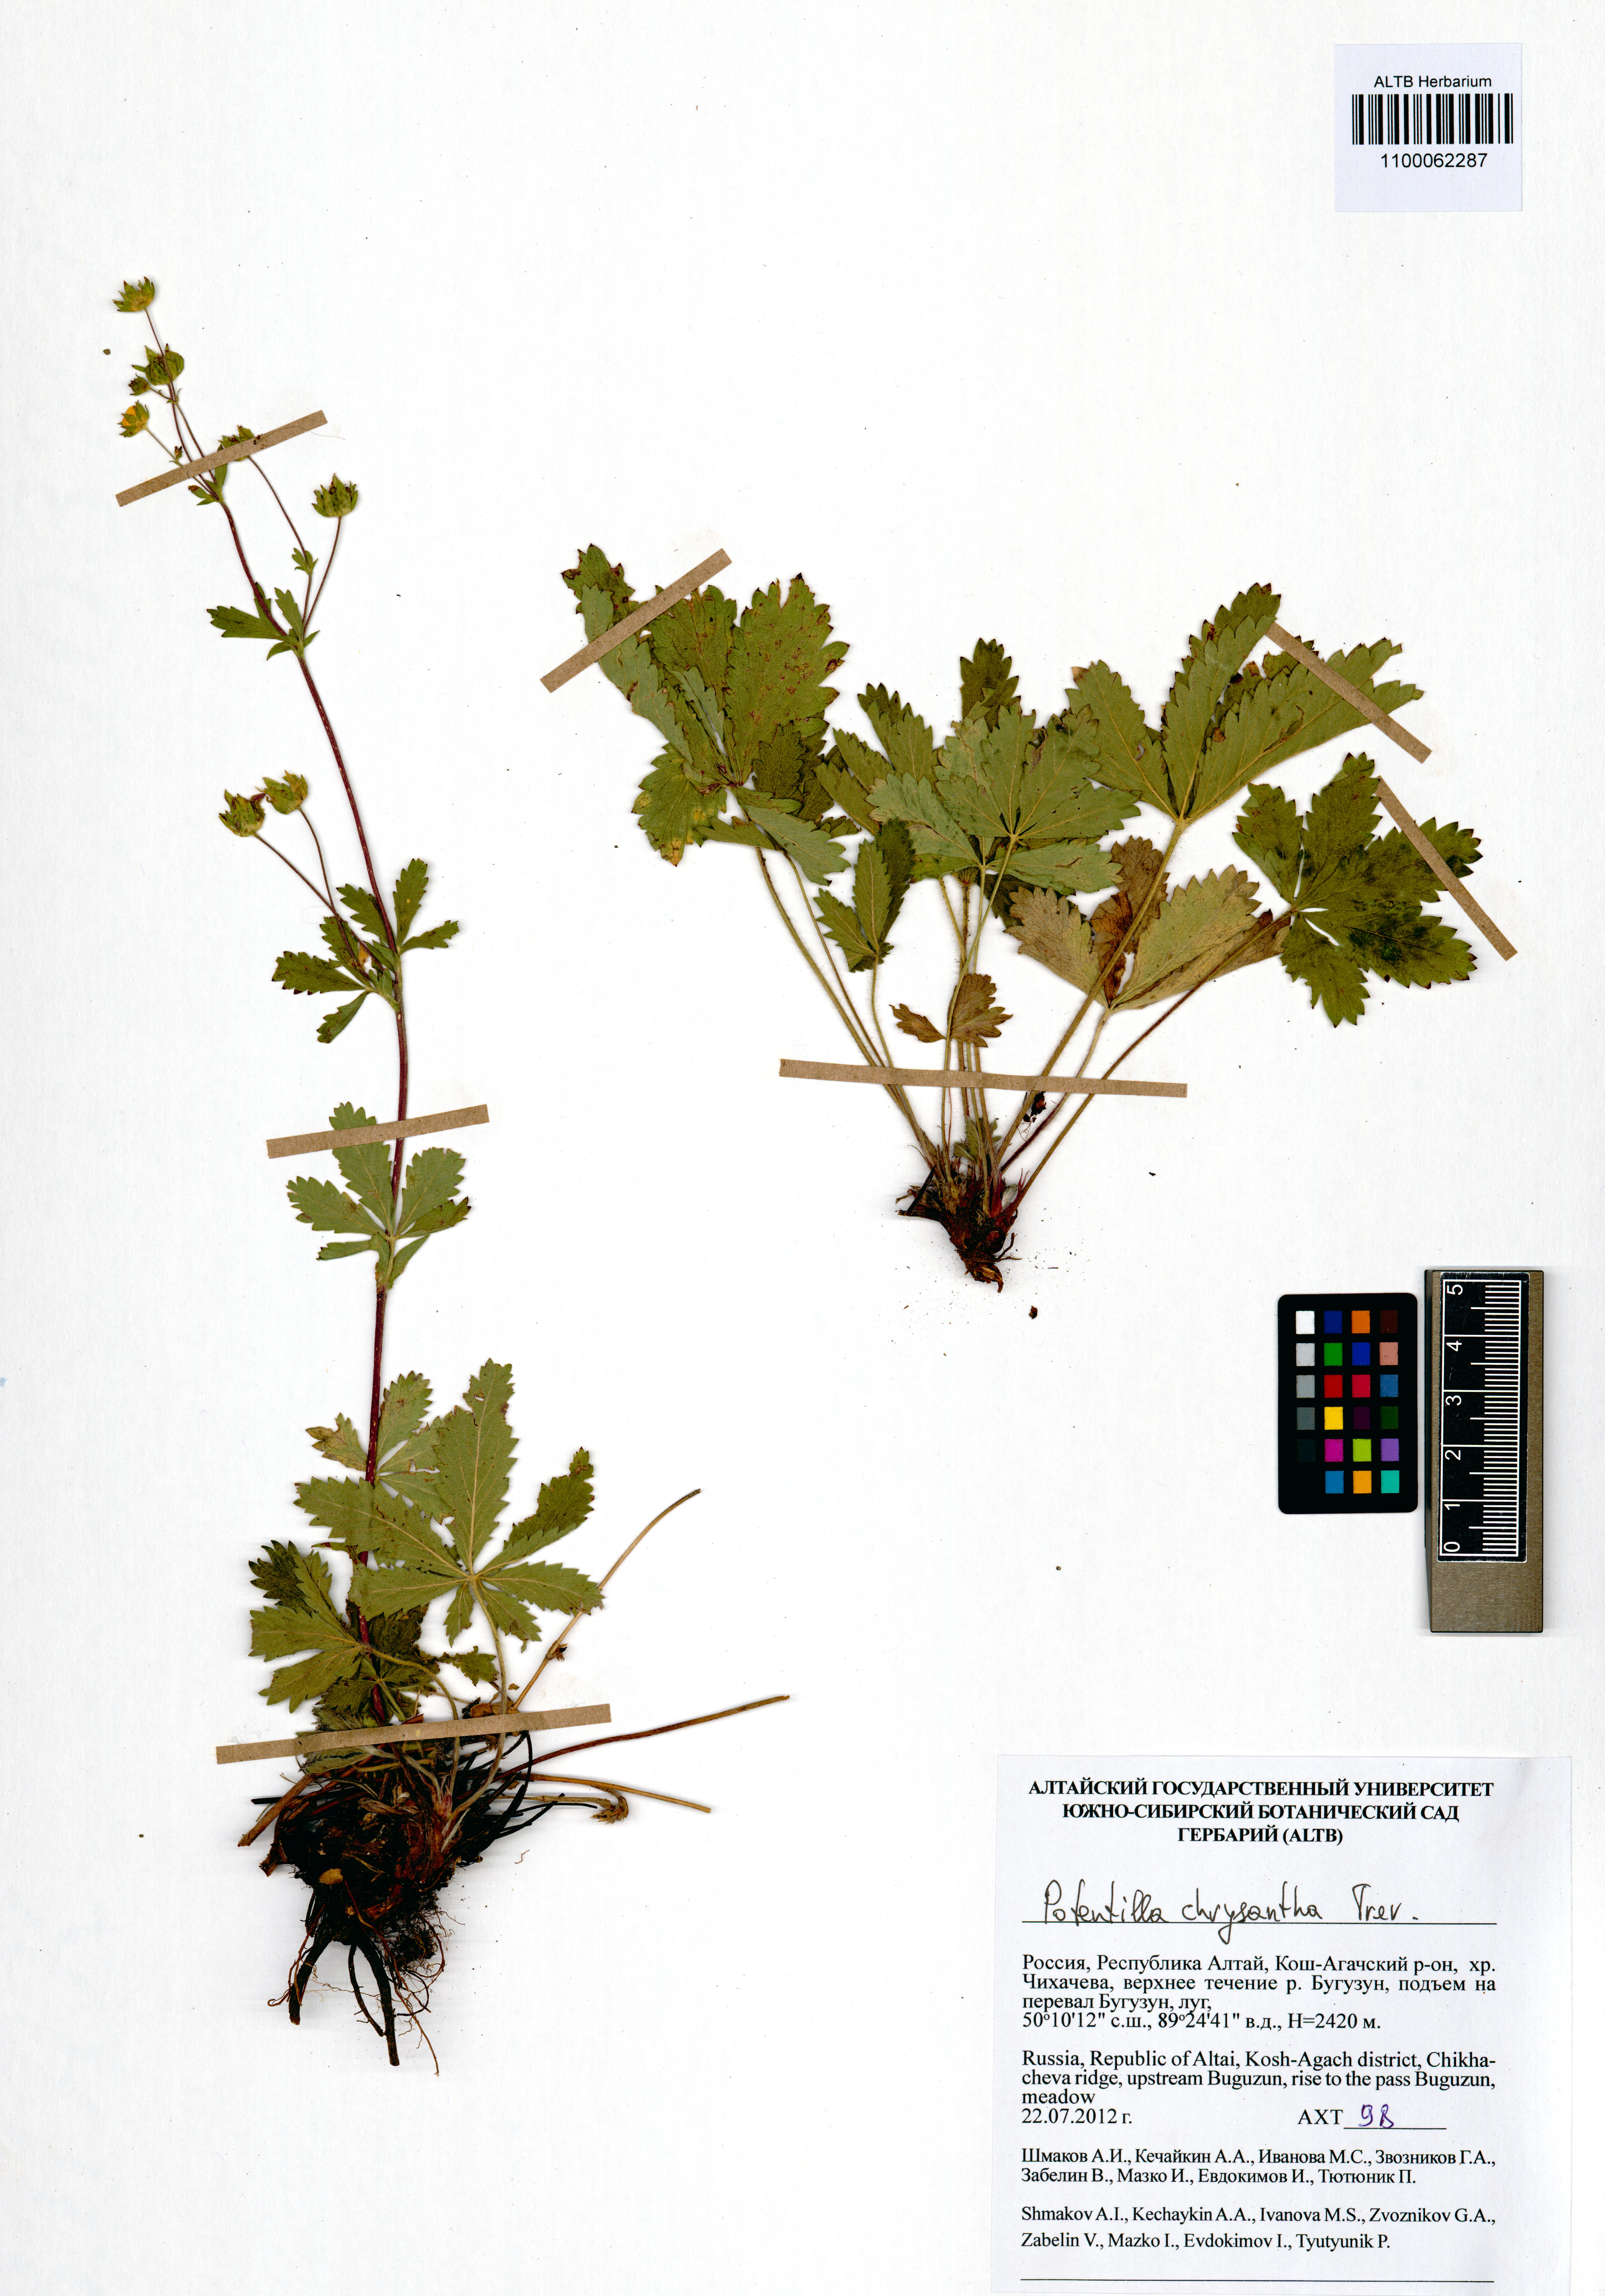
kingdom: Plantae
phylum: Tracheophyta
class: Magnoliopsida
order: Rosales
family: Rosaceae
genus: Potentilla
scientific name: Potentilla chrysantha
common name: Thuringian cinquefoil
